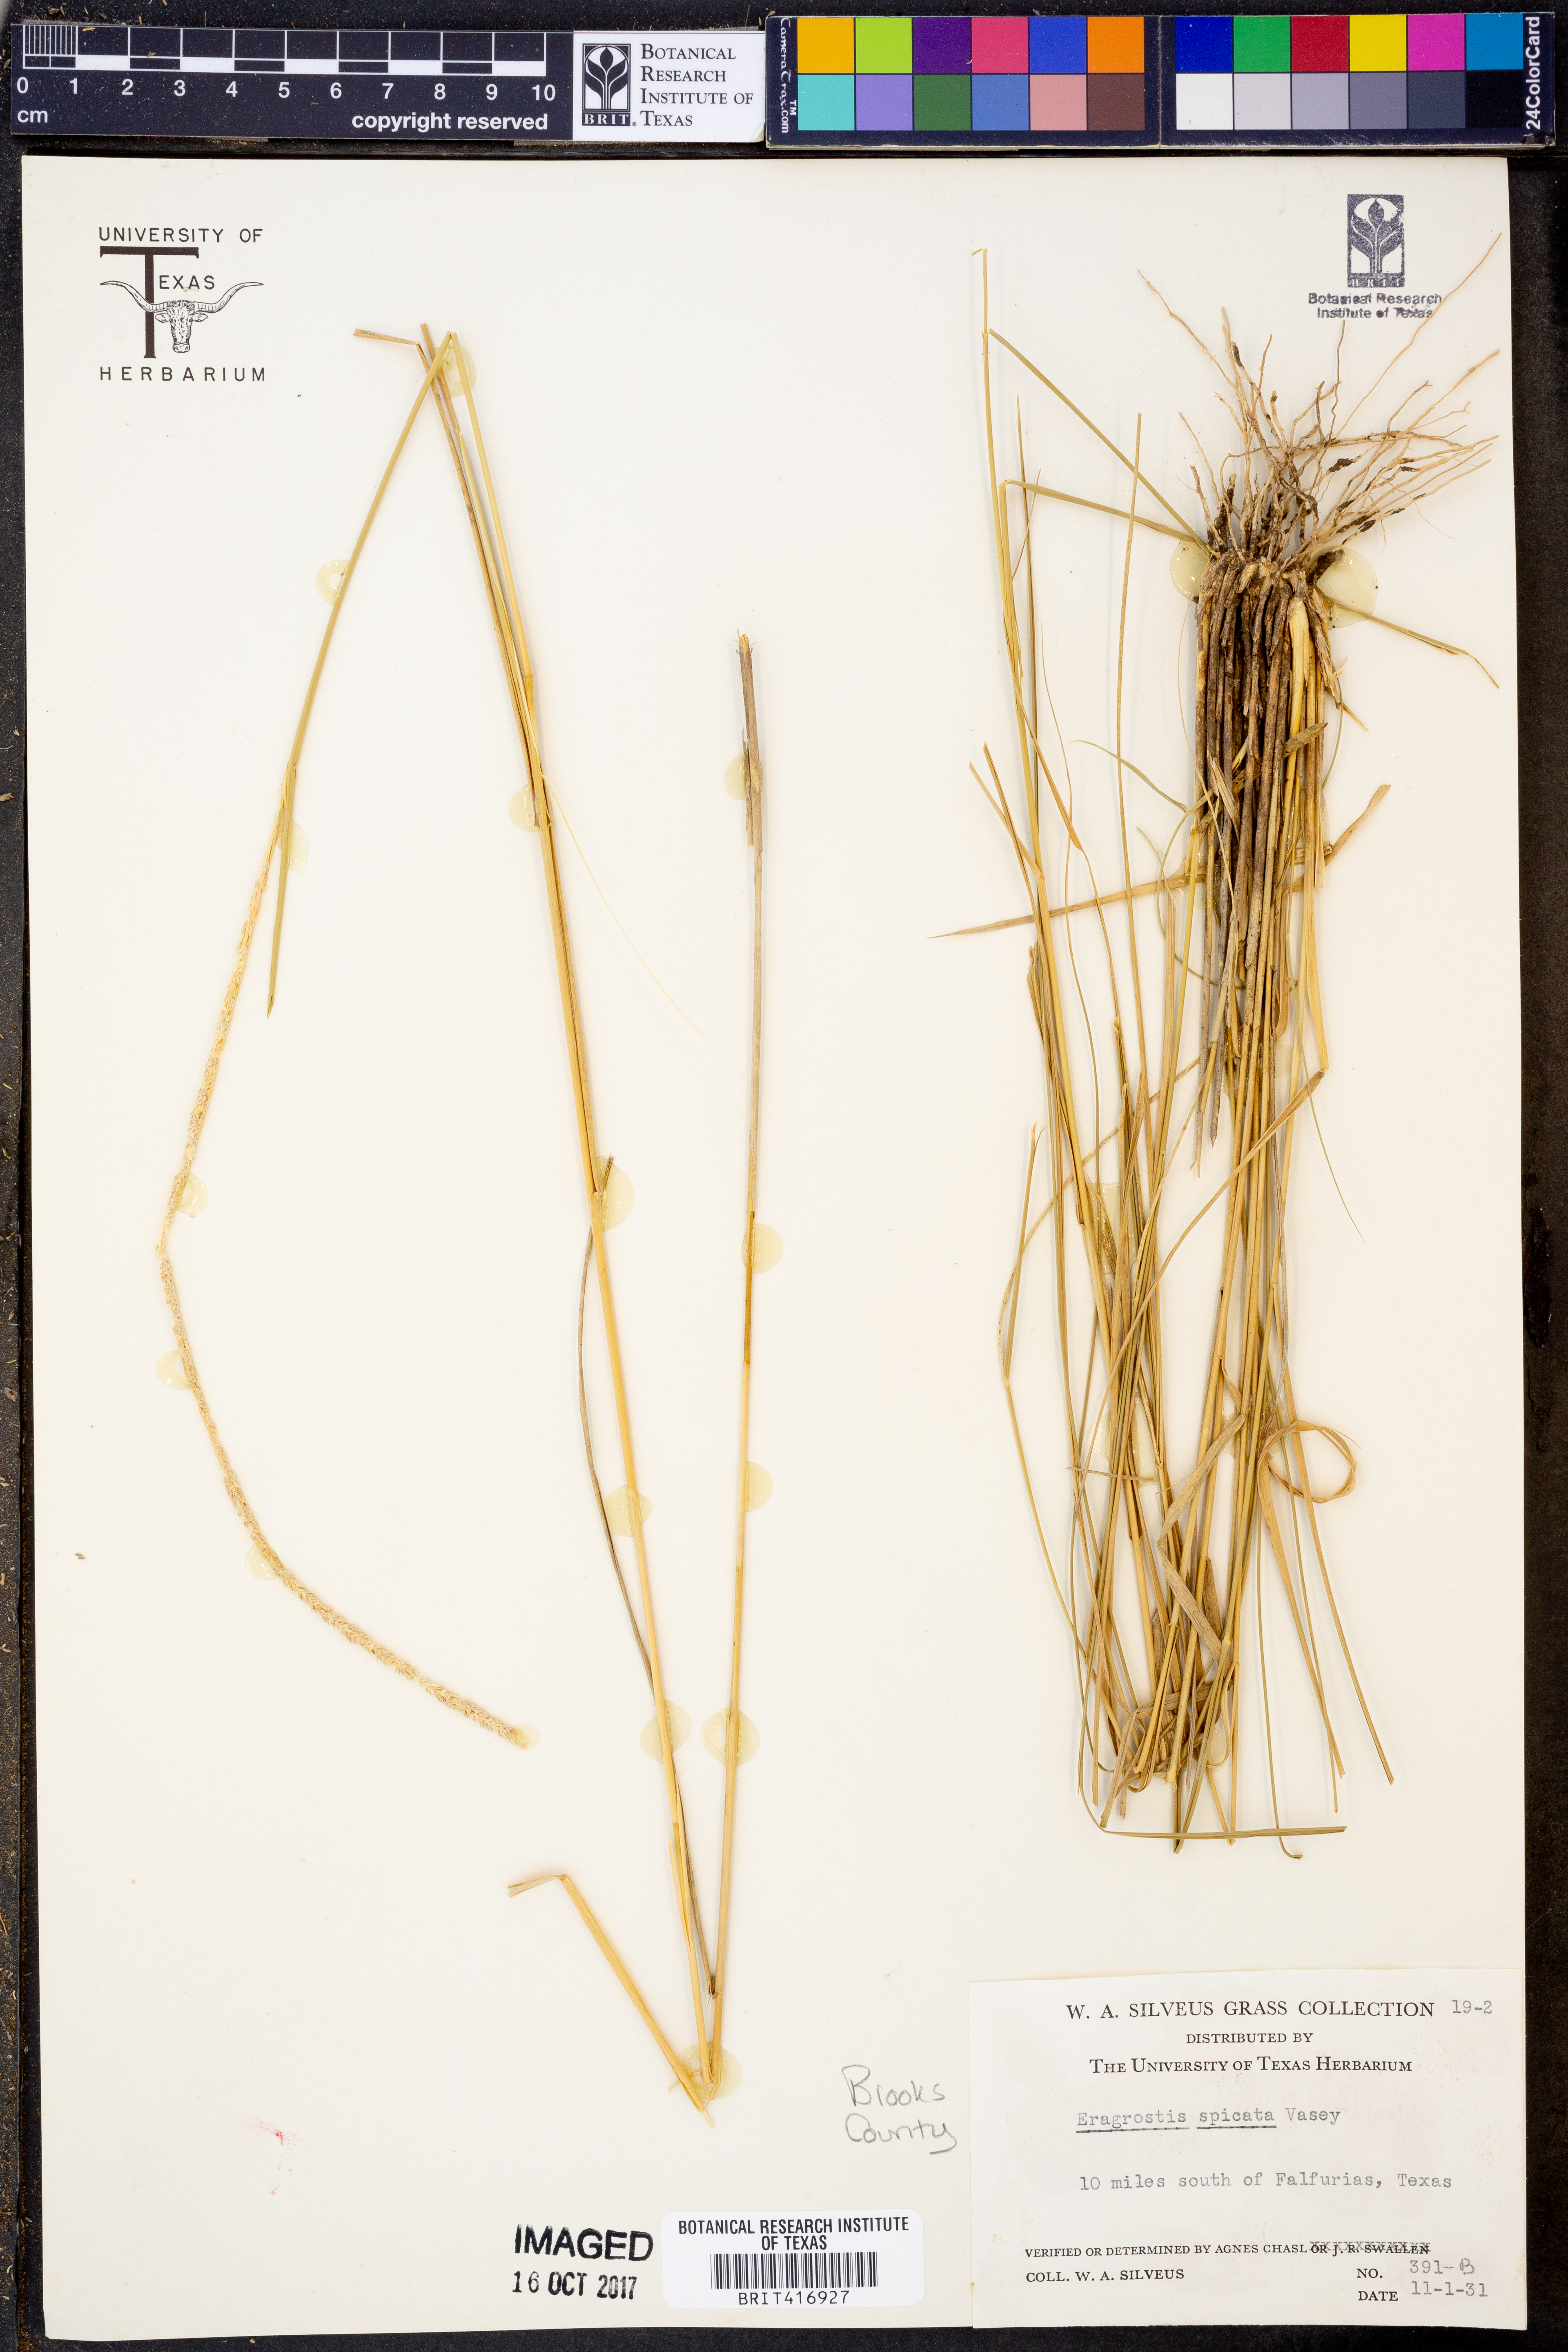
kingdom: Plantae
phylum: Tracheophyta
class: Liliopsida
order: Poales
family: Poaceae
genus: Eragrostis
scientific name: Eragrostis spicata
